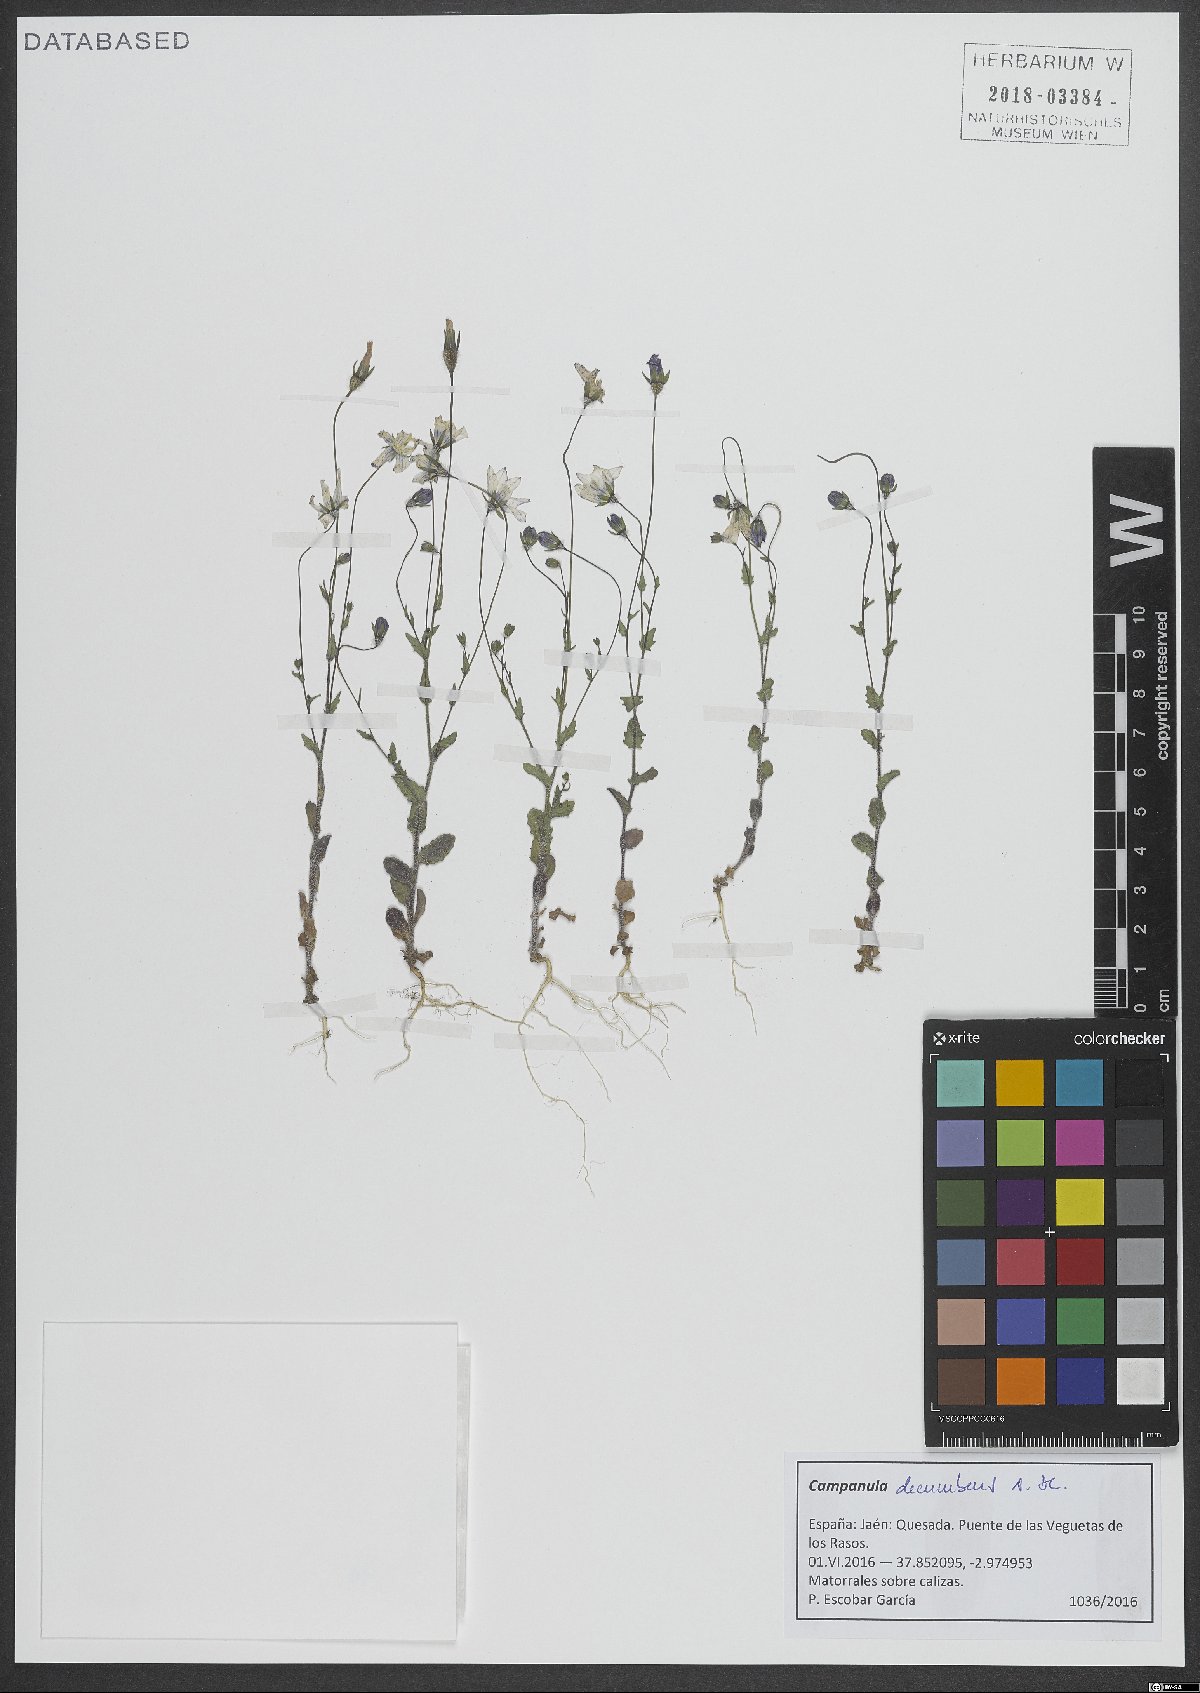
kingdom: Plantae
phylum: Tracheophyta
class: Magnoliopsida
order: Asterales
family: Campanulaceae
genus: Campanula
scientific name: Campanula decumbens
